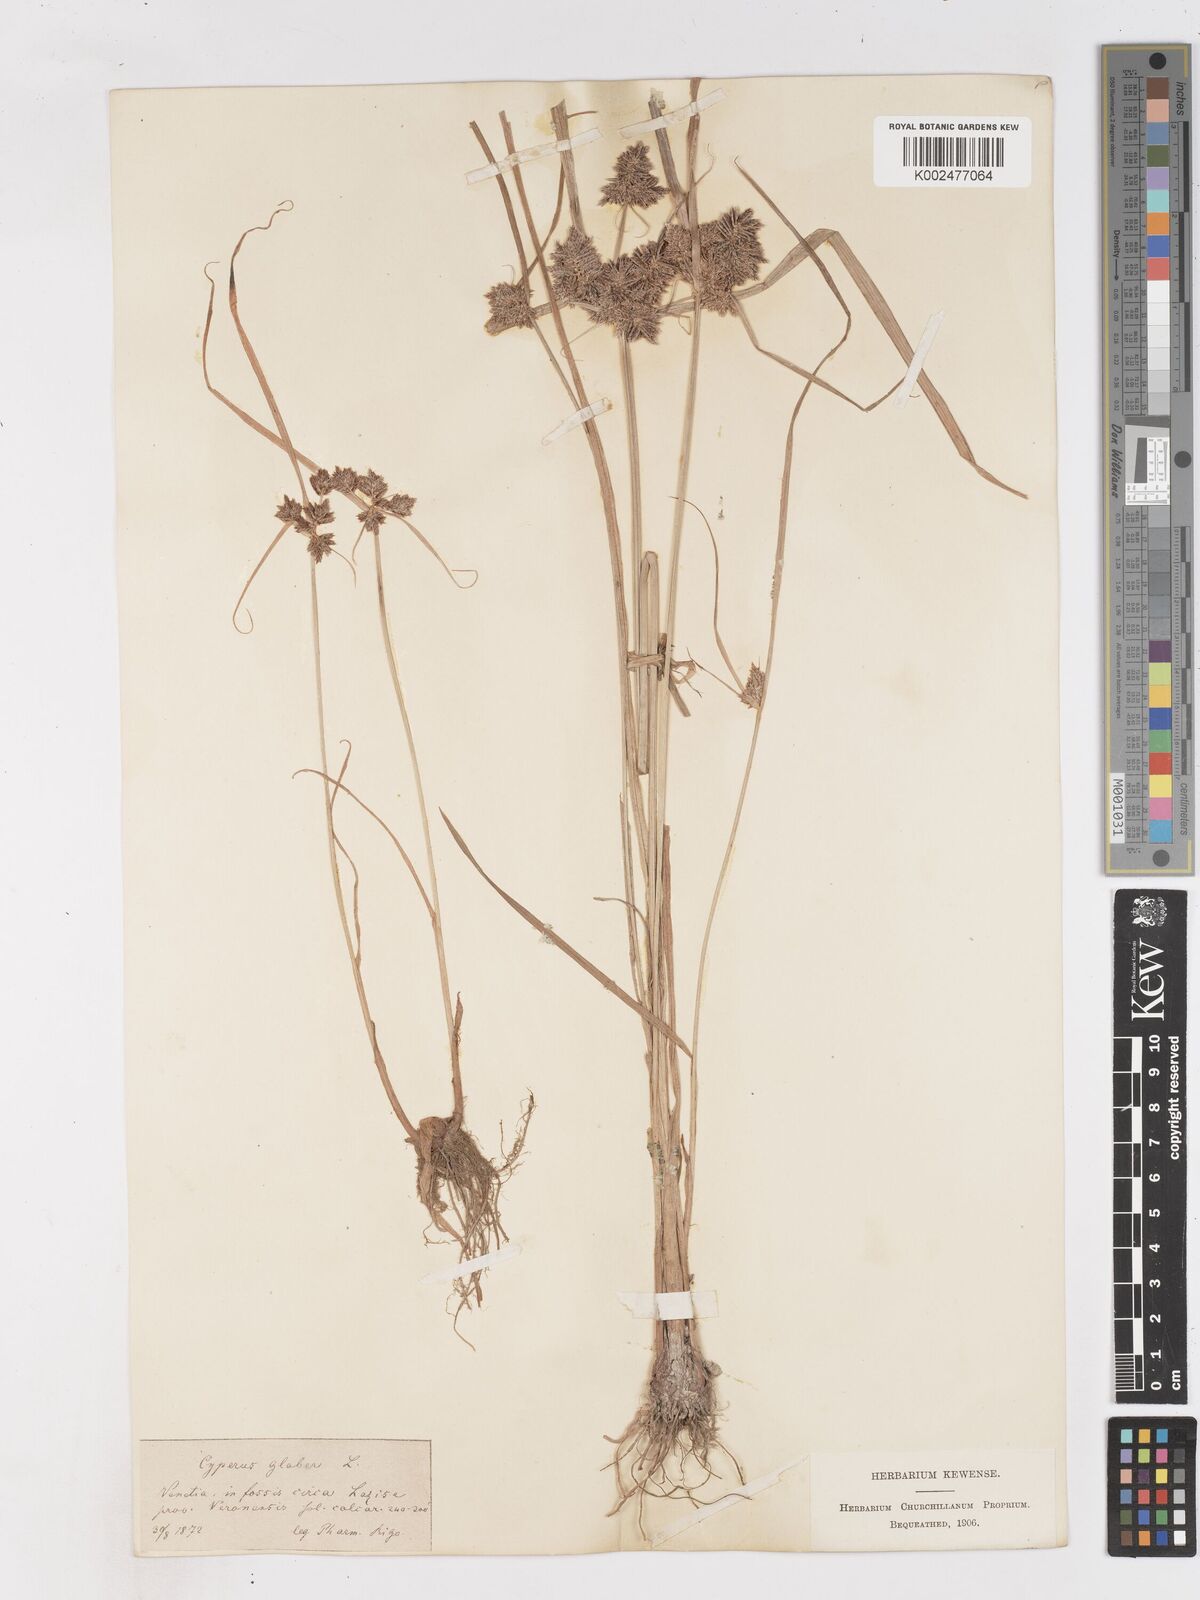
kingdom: Plantae
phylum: Tracheophyta
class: Liliopsida
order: Poales
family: Cyperaceae
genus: Cyperus
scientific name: Cyperus glaber
